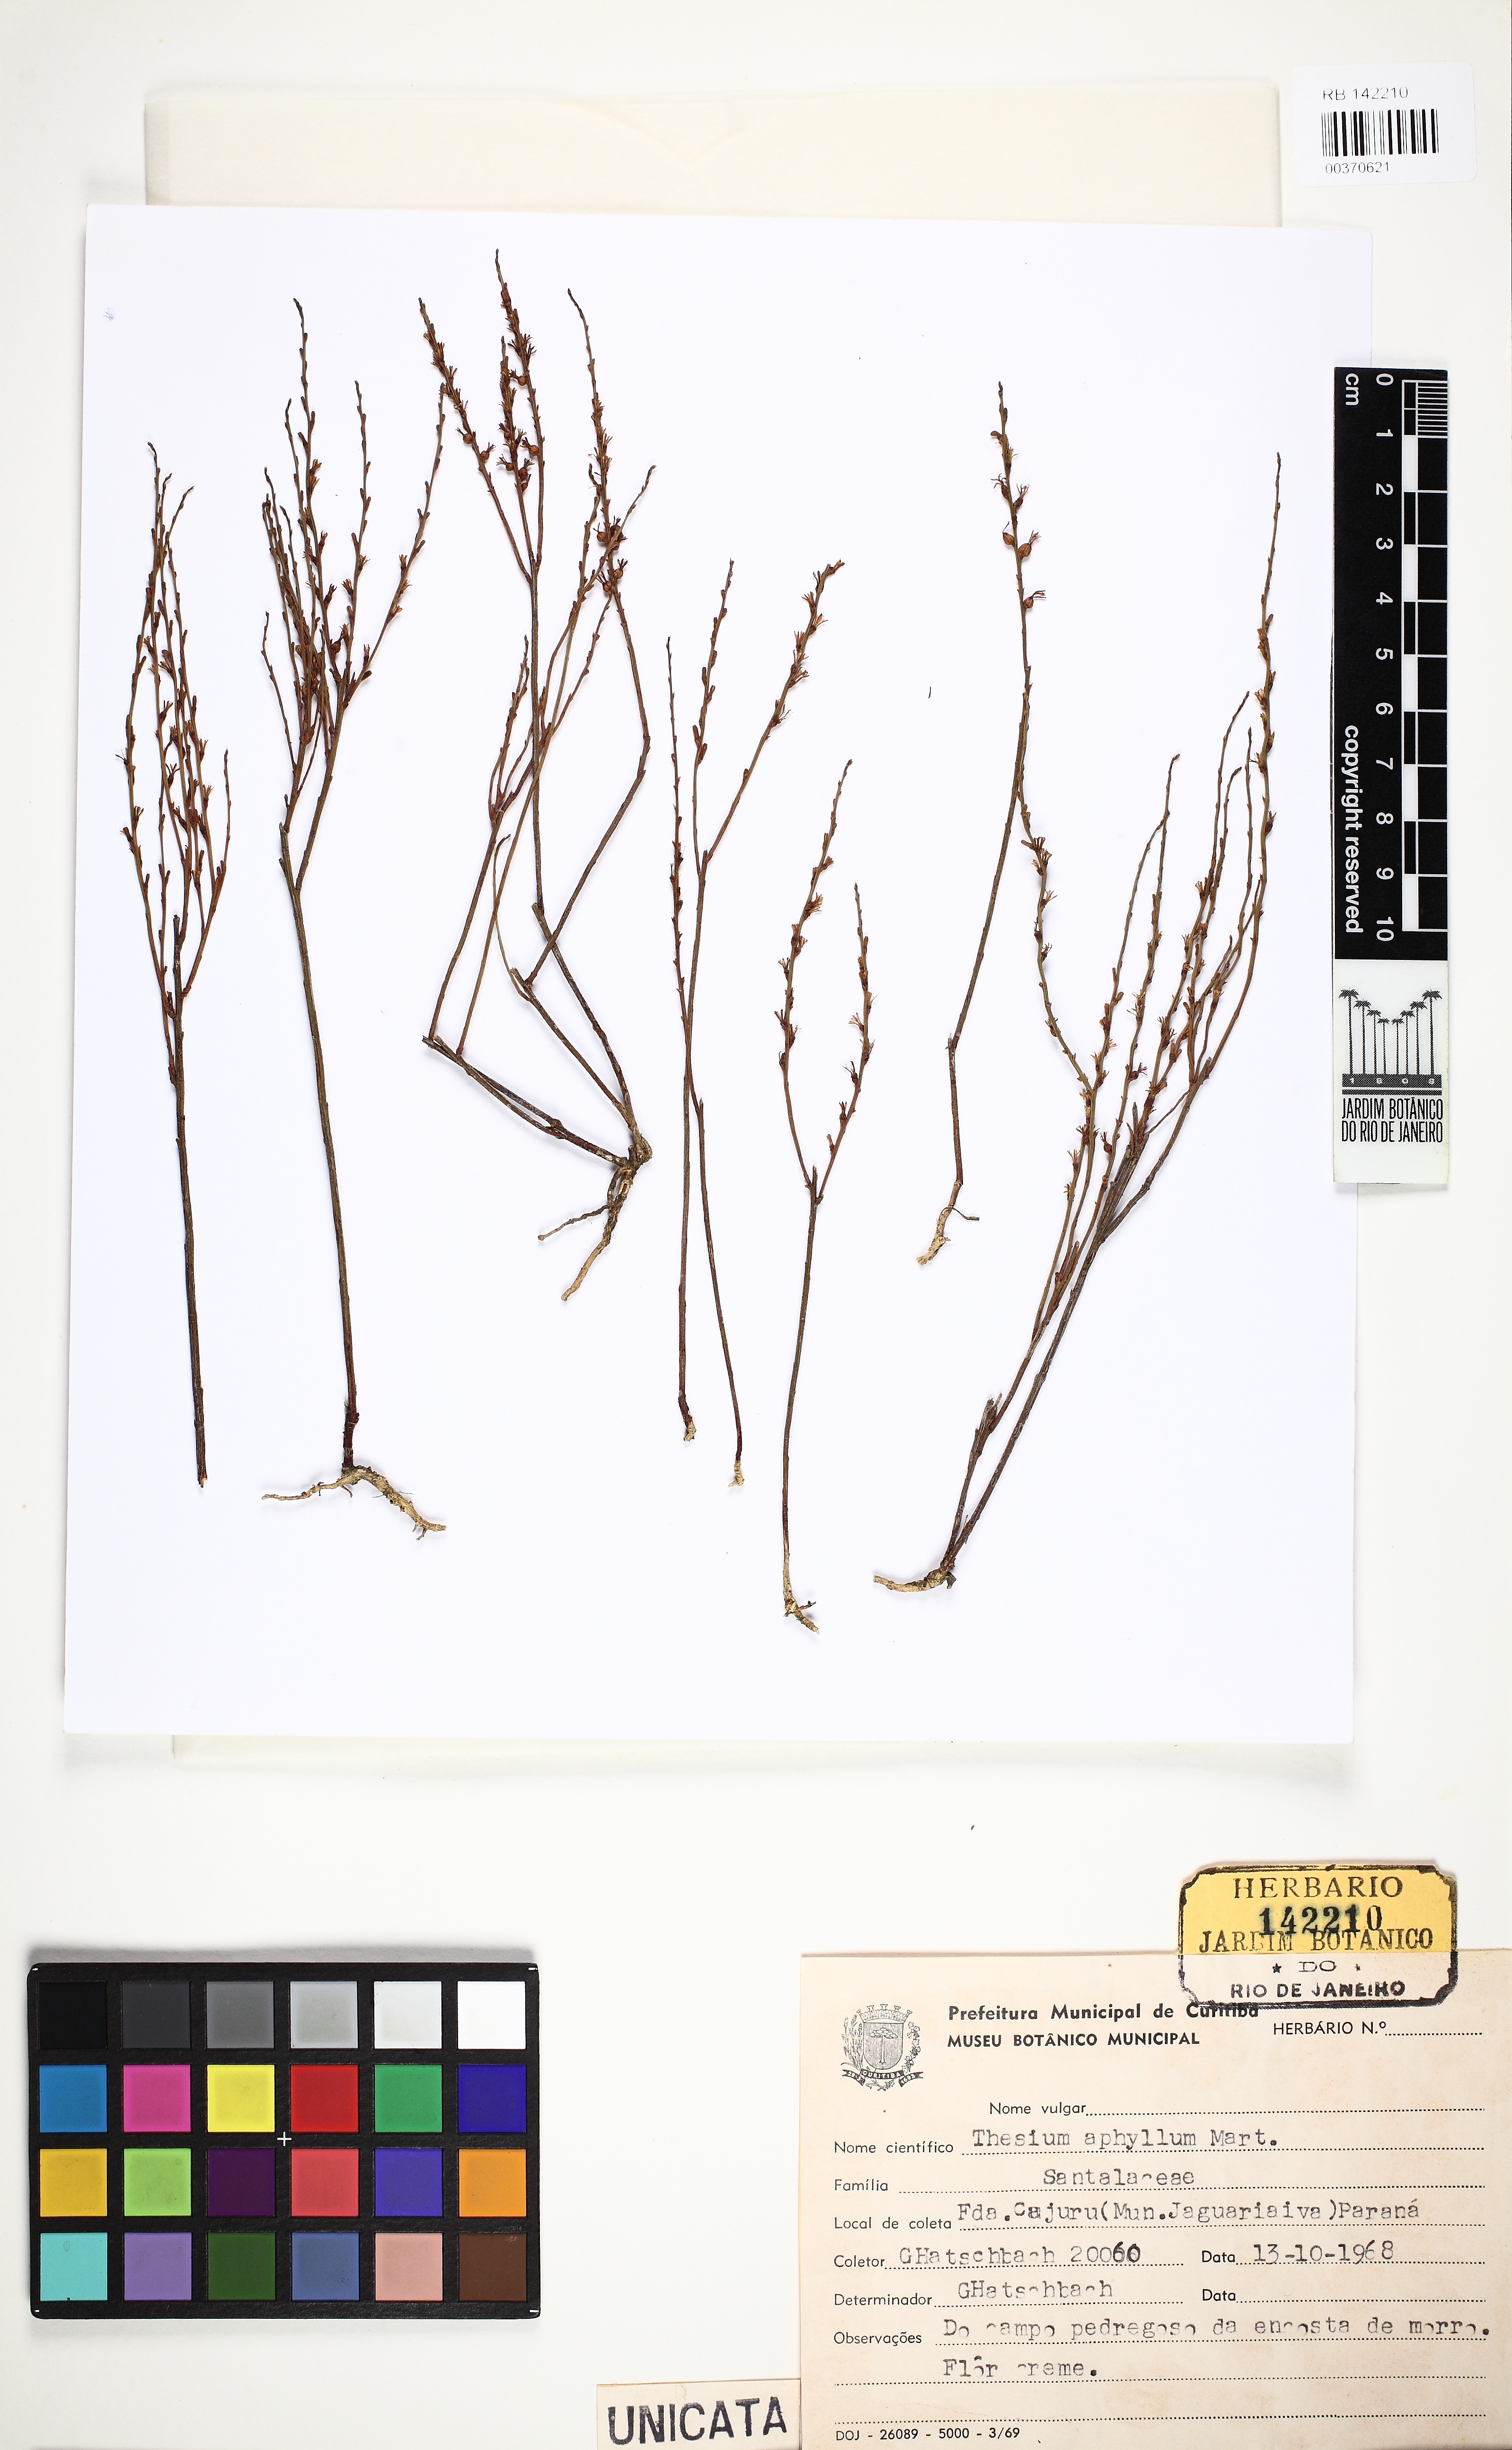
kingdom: Plantae
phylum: Tracheophyta
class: Magnoliopsida
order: Santalales
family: Thesiaceae
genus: Austroamericium
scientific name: Austroamericium aphyllum
